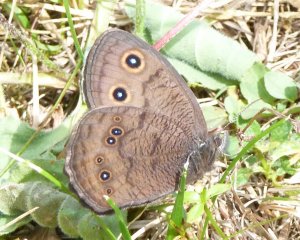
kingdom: Animalia
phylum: Arthropoda
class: Insecta
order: Lepidoptera
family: Nymphalidae
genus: Cercyonis
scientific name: Cercyonis pegala
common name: Common Wood-Nymph
